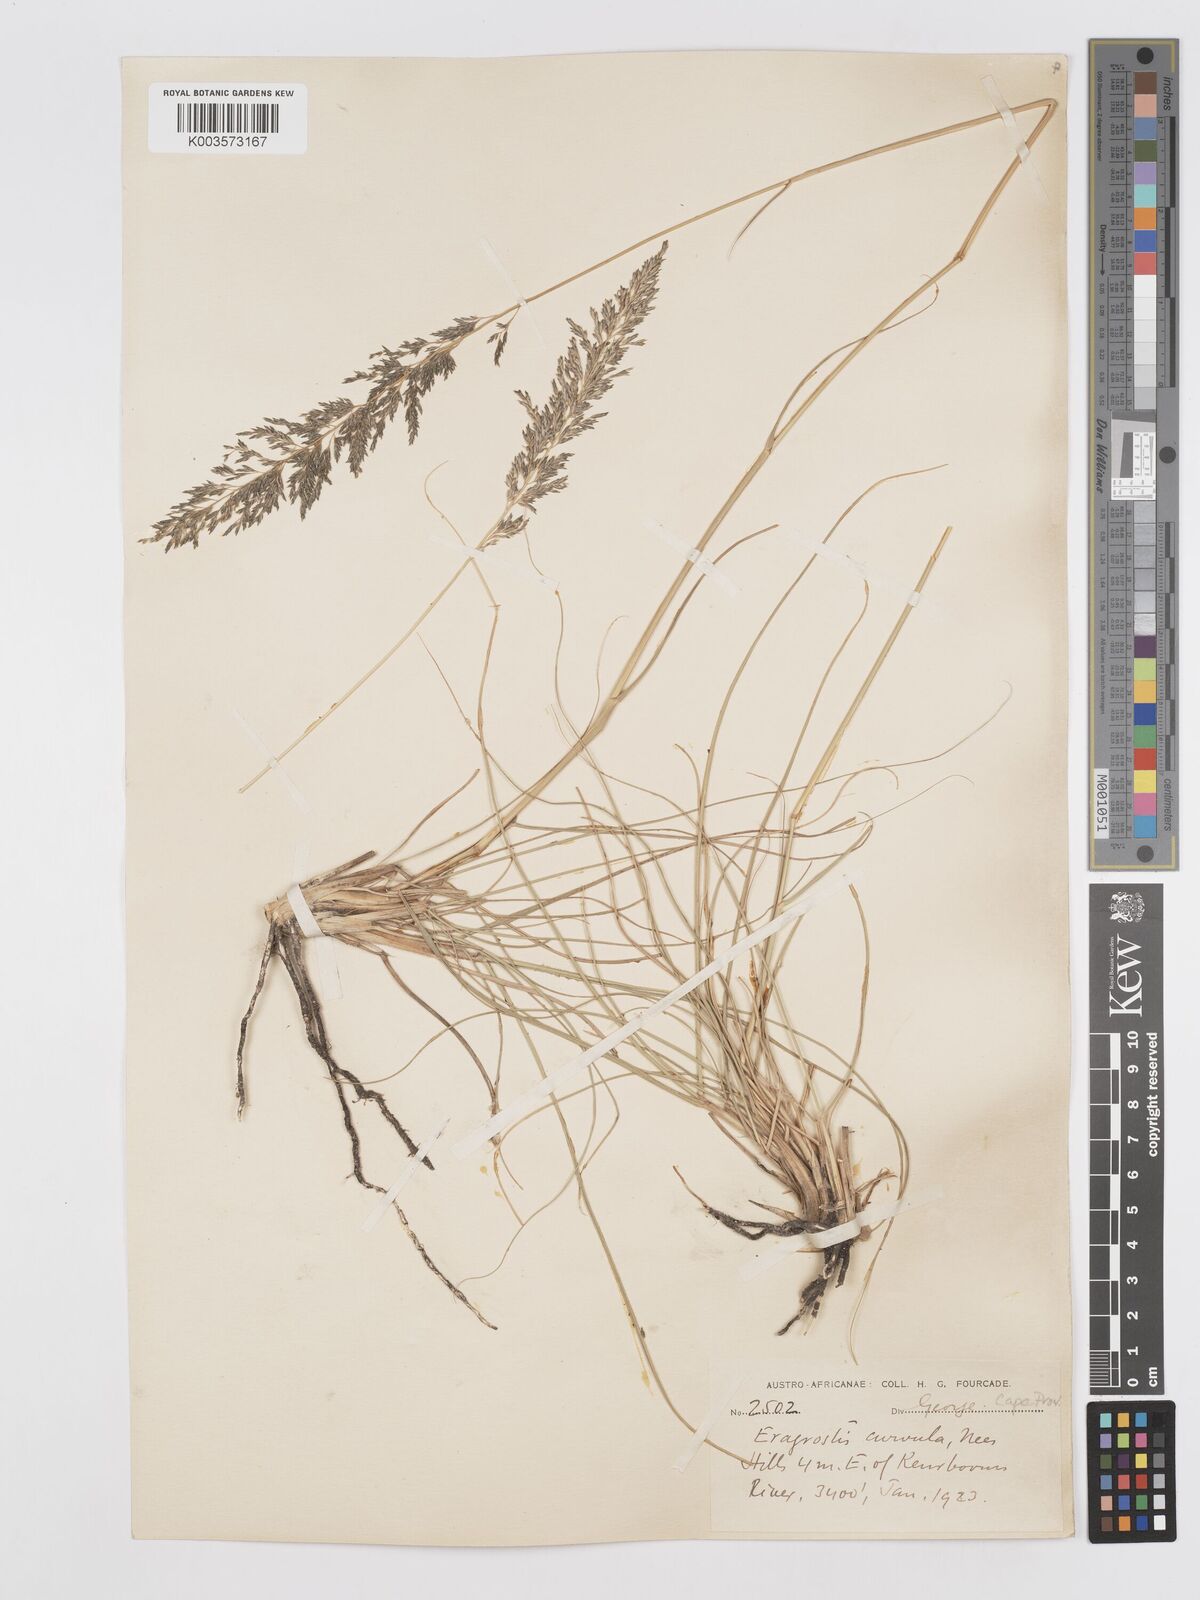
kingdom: Plantae
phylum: Tracheophyta
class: Liliopsida
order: Poales
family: Poaceae
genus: Eragrostis
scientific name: Eragrostis curvula
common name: African love-grass
